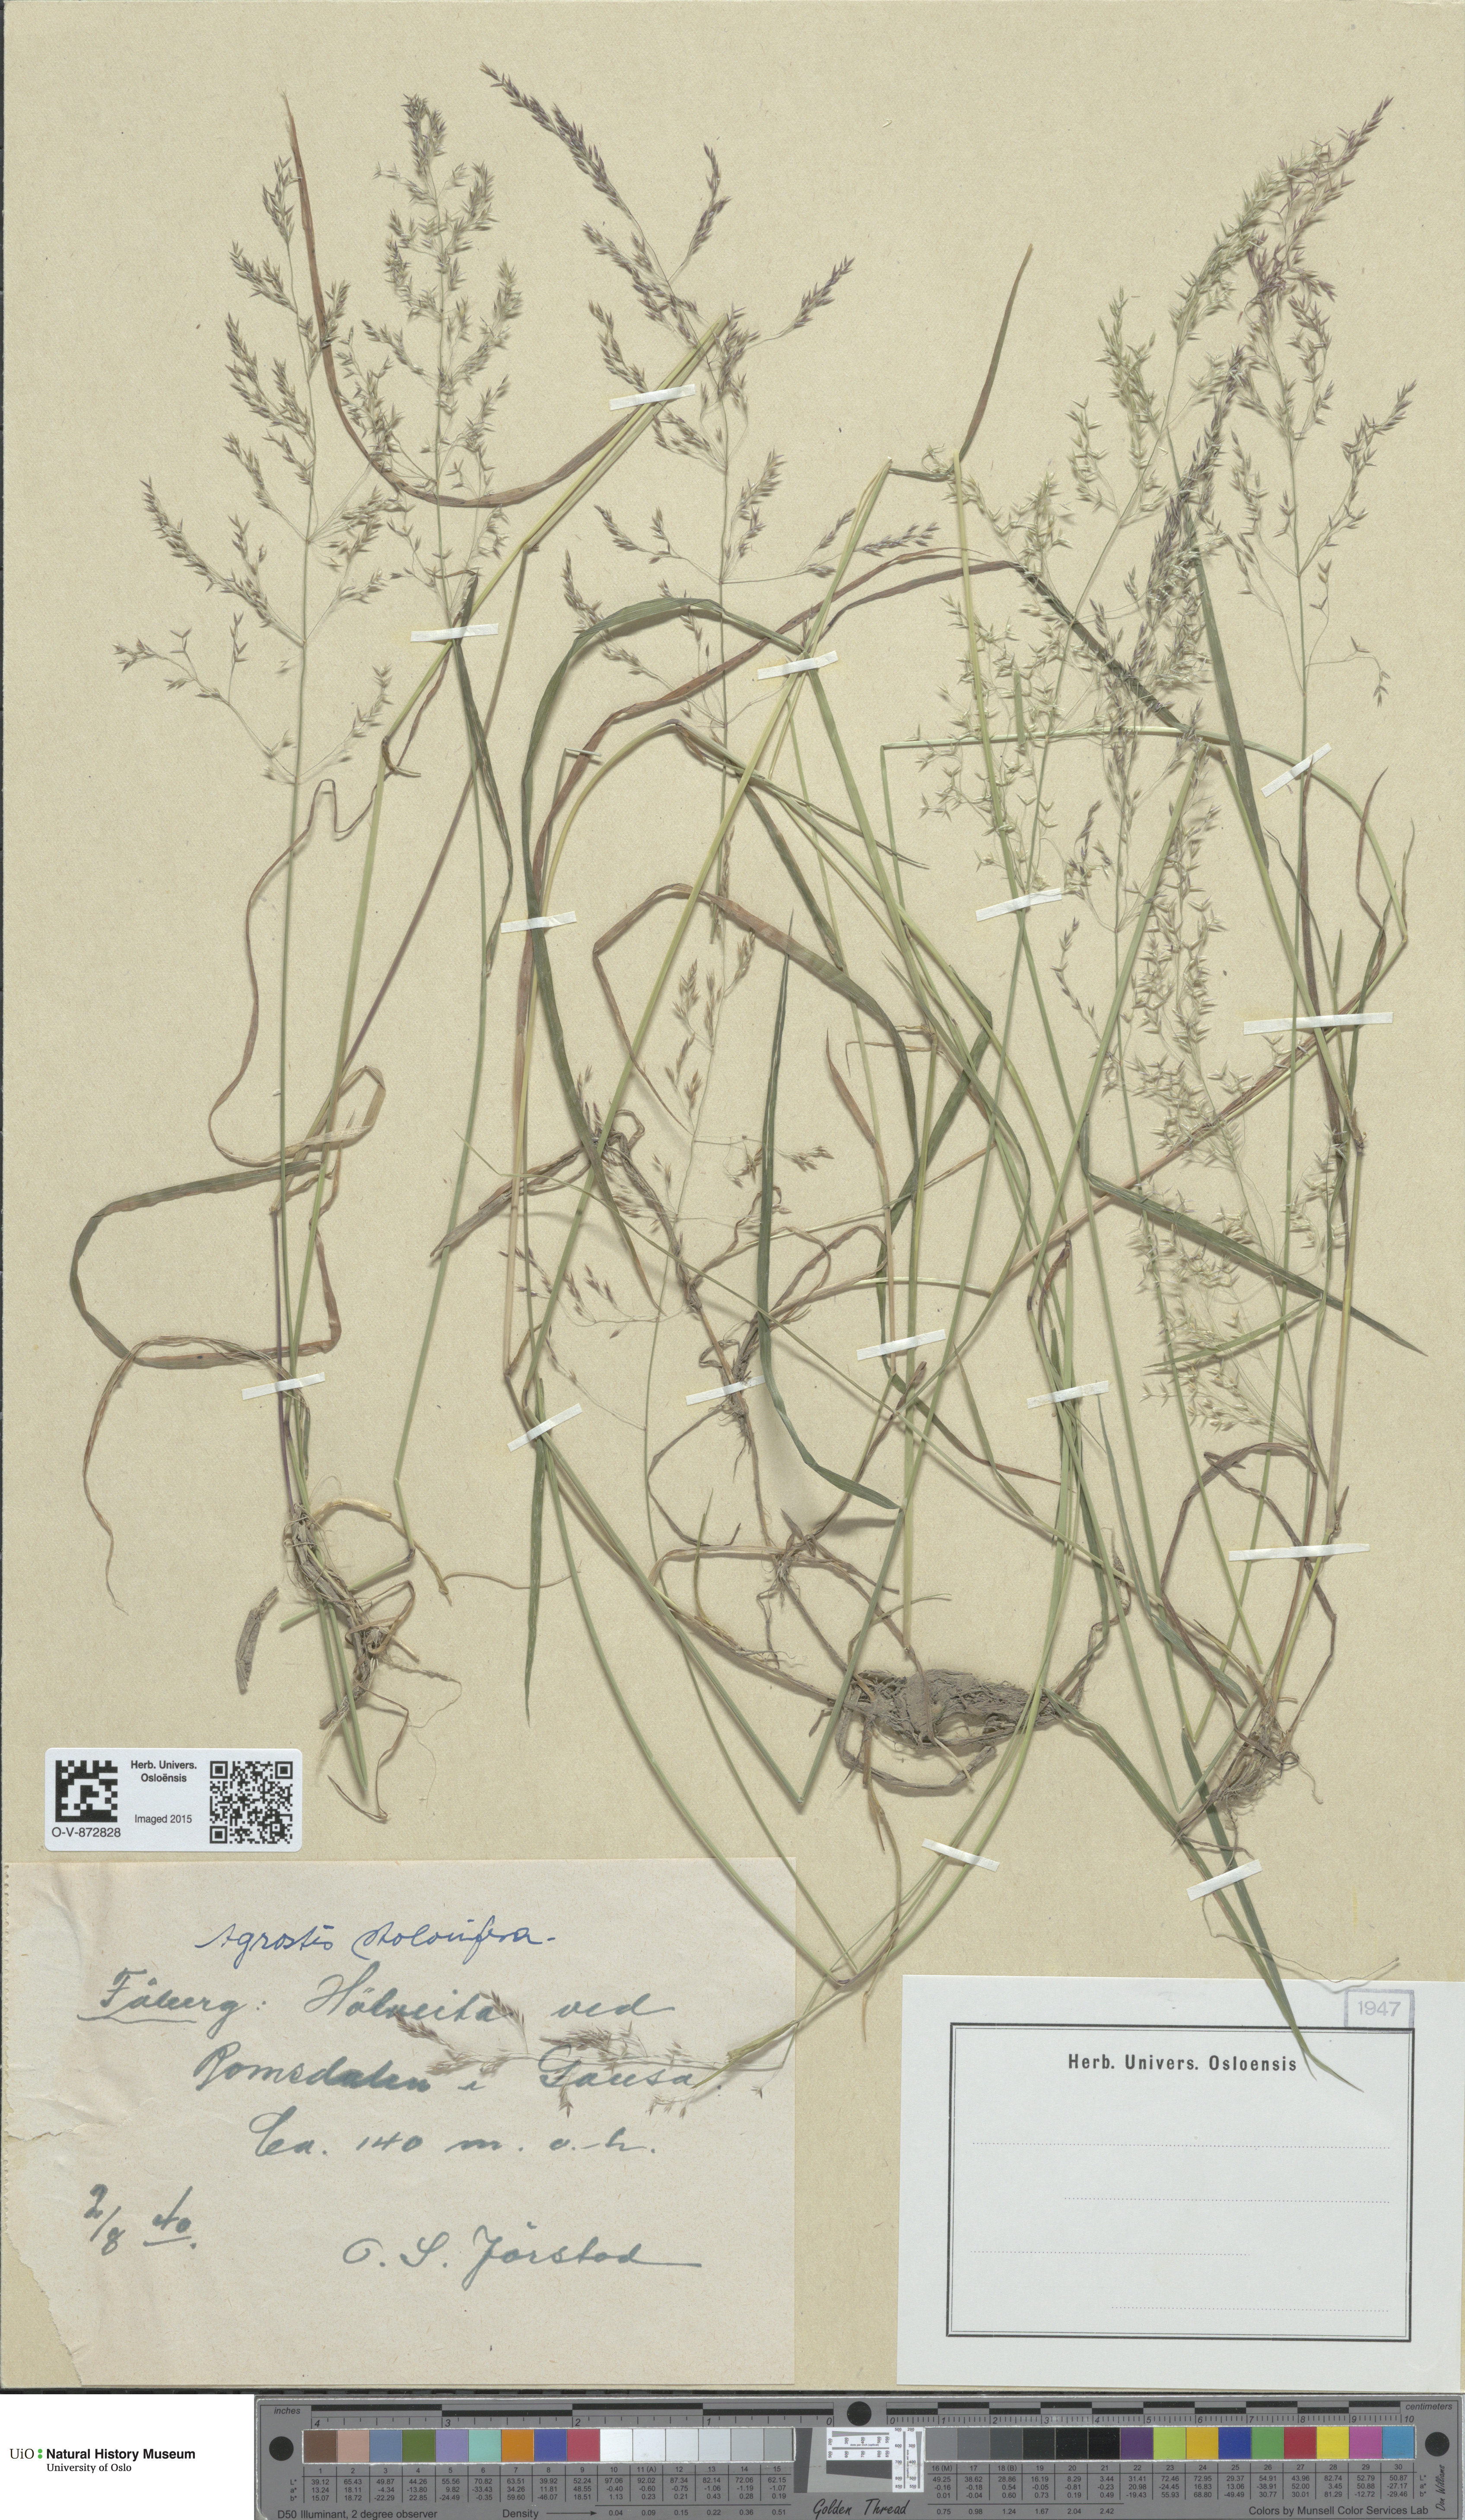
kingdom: Plantae
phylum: Tracheophyta
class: Liliopsida
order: Poales
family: Poaceae
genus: Agrostis
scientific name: Agrostis stolonifera
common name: Creeping bentgrass
